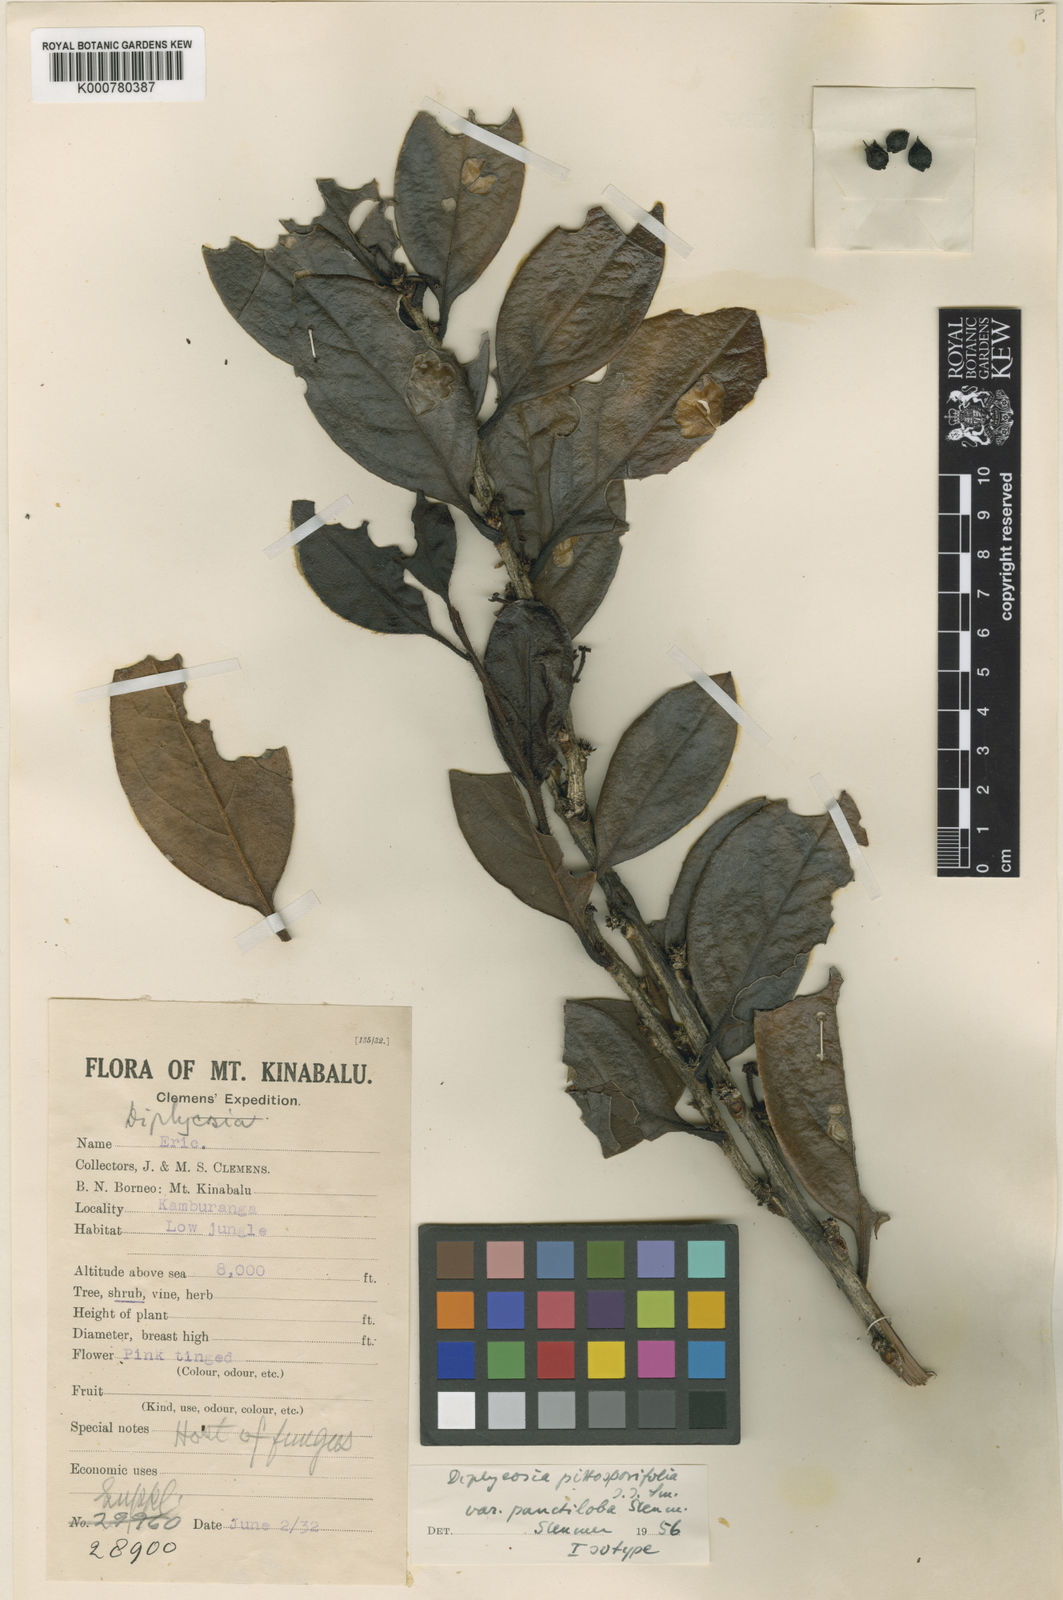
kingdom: Plantae
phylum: Tracheophyta
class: Magnoliopsida
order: Ericales
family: Ericaceae
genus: Gaultheria
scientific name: Gaultheria pittosporifolia
